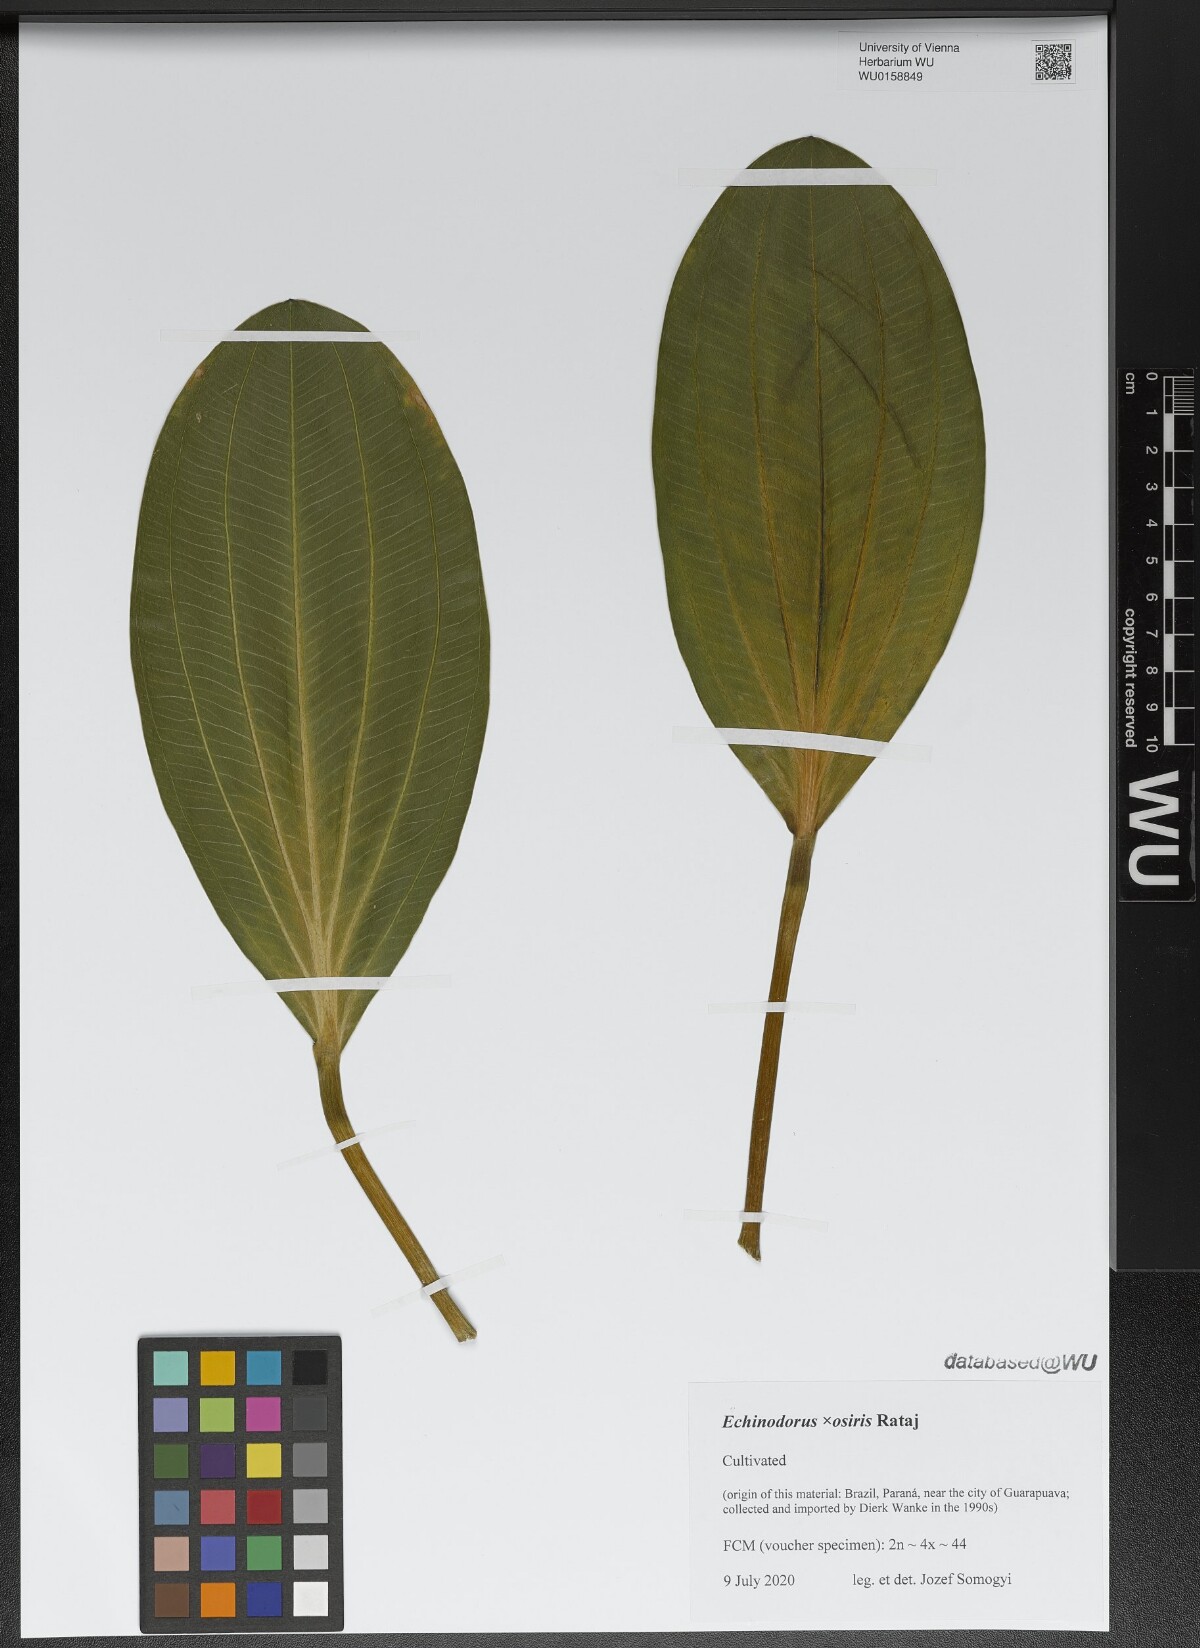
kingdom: Plantae
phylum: Tracheophyta
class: Liliopsida
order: Alismatales
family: Alismataceae
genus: Aquarius
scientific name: Aquarius uruguayensis
